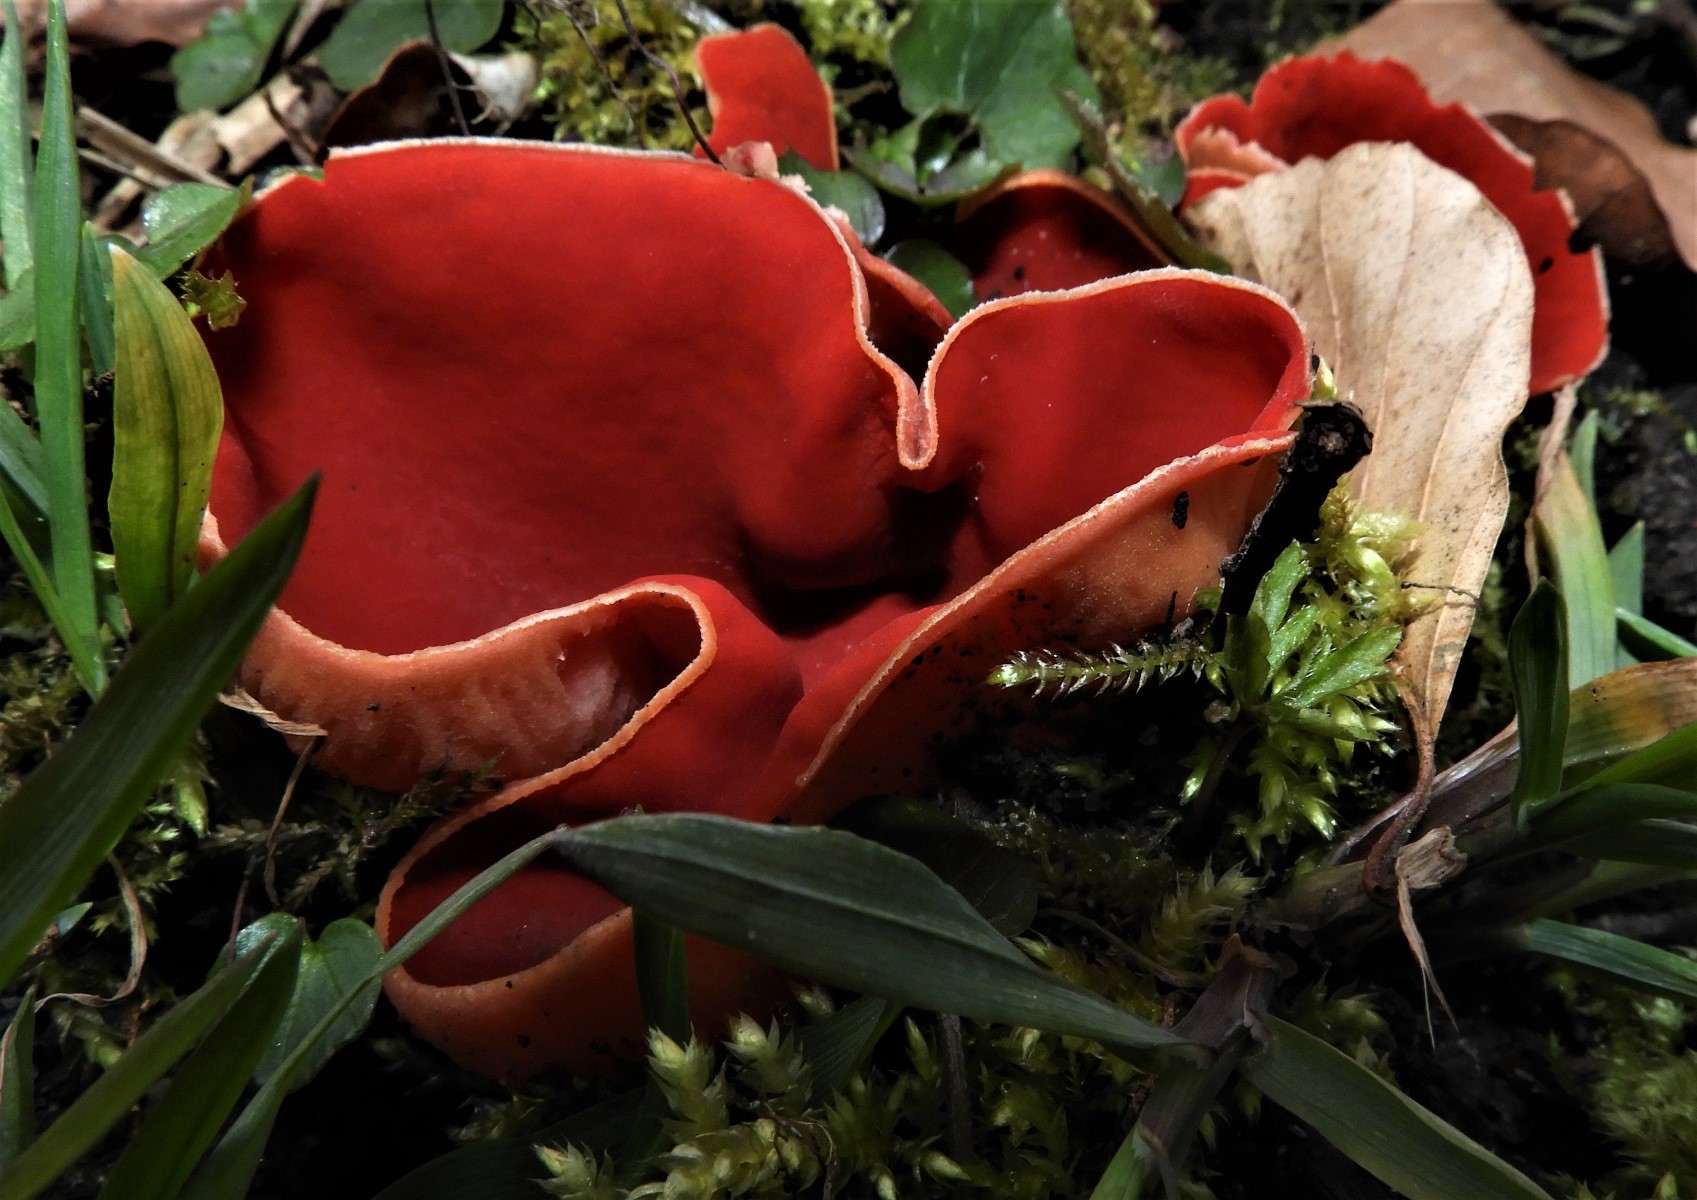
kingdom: Fungi
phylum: Ascomycota
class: Pezizomycetes
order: Pezizales
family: Sarcoscyphaceae
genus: Sarcoscypha
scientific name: Sarcoscypha austriaca
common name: krølhåret pragtbæger
